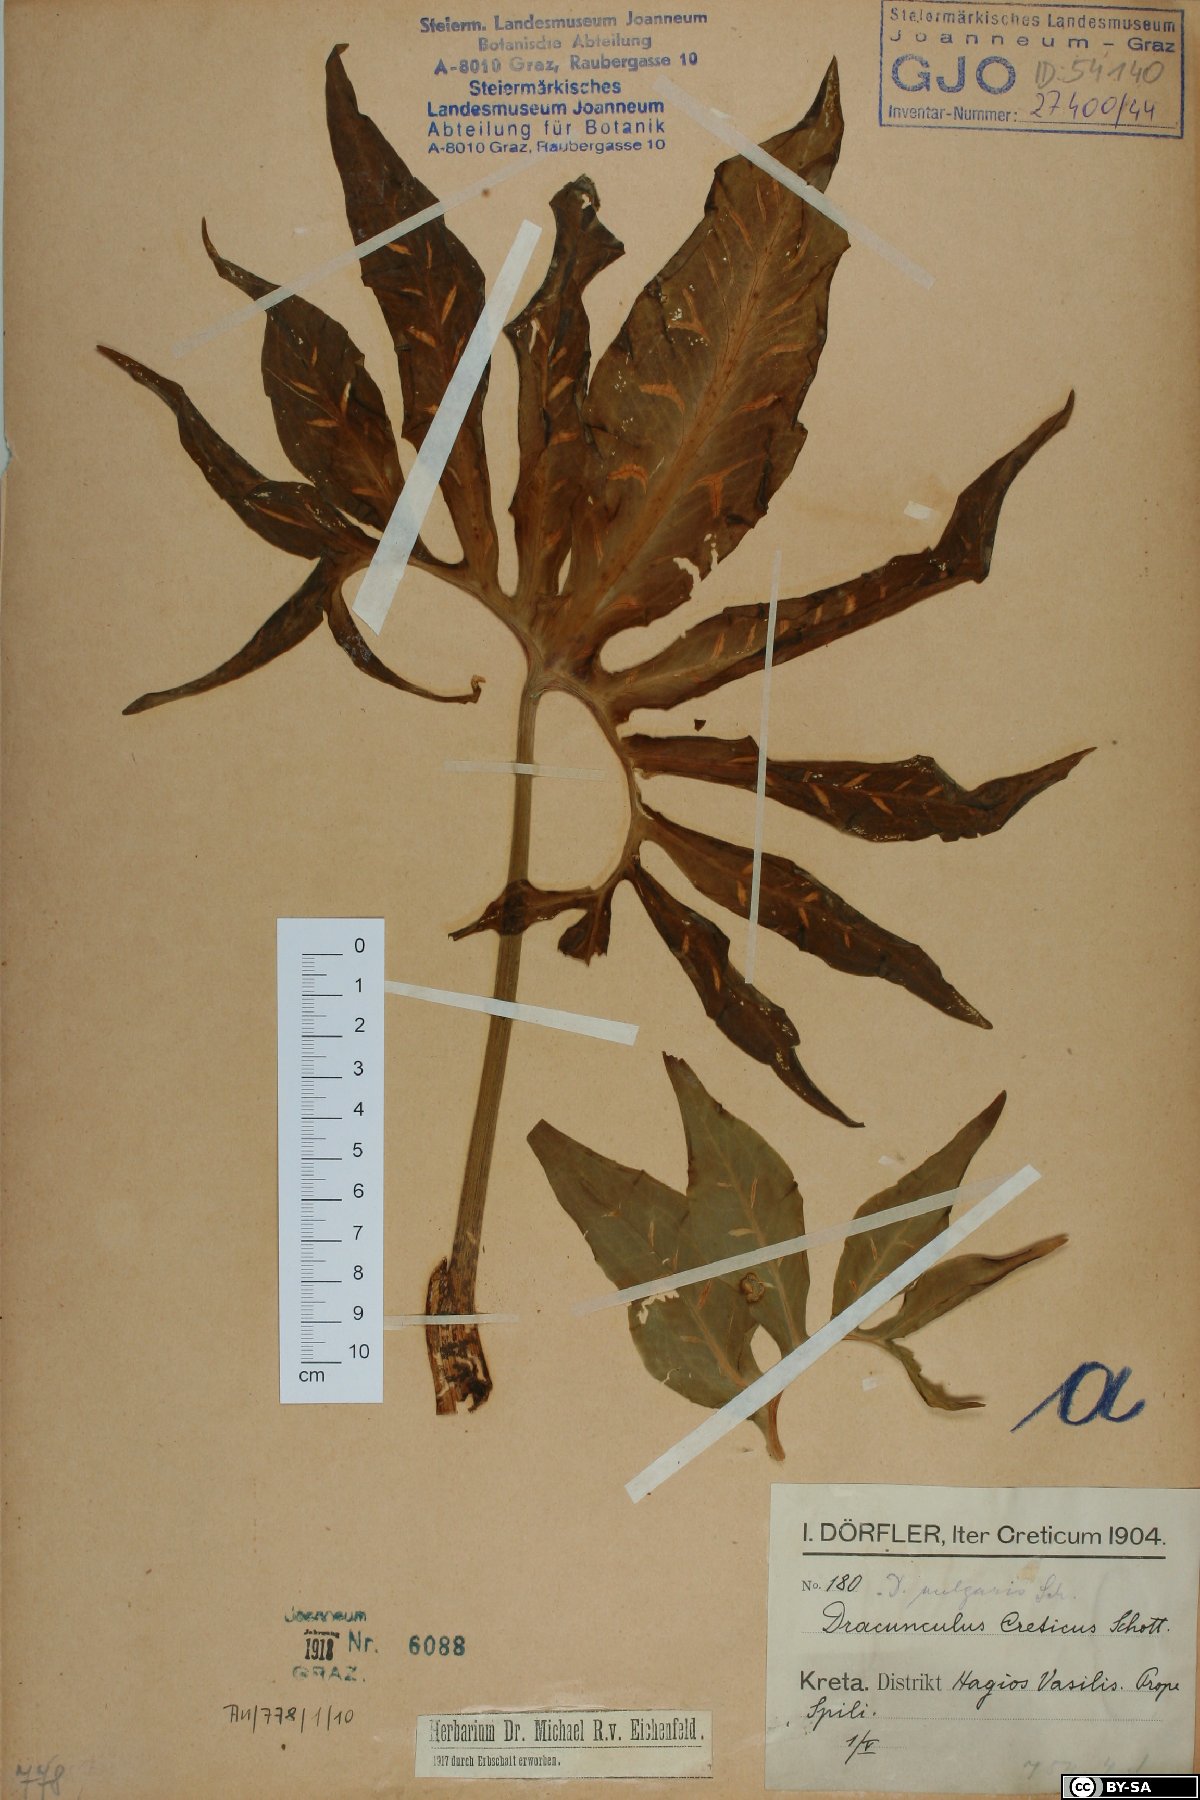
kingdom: Plantae
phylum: Tracheophyta
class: Liliopsida
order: Alismatales
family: Araceae
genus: Dracunculus
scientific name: Dracunculus vulgaris
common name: Dragon arum
